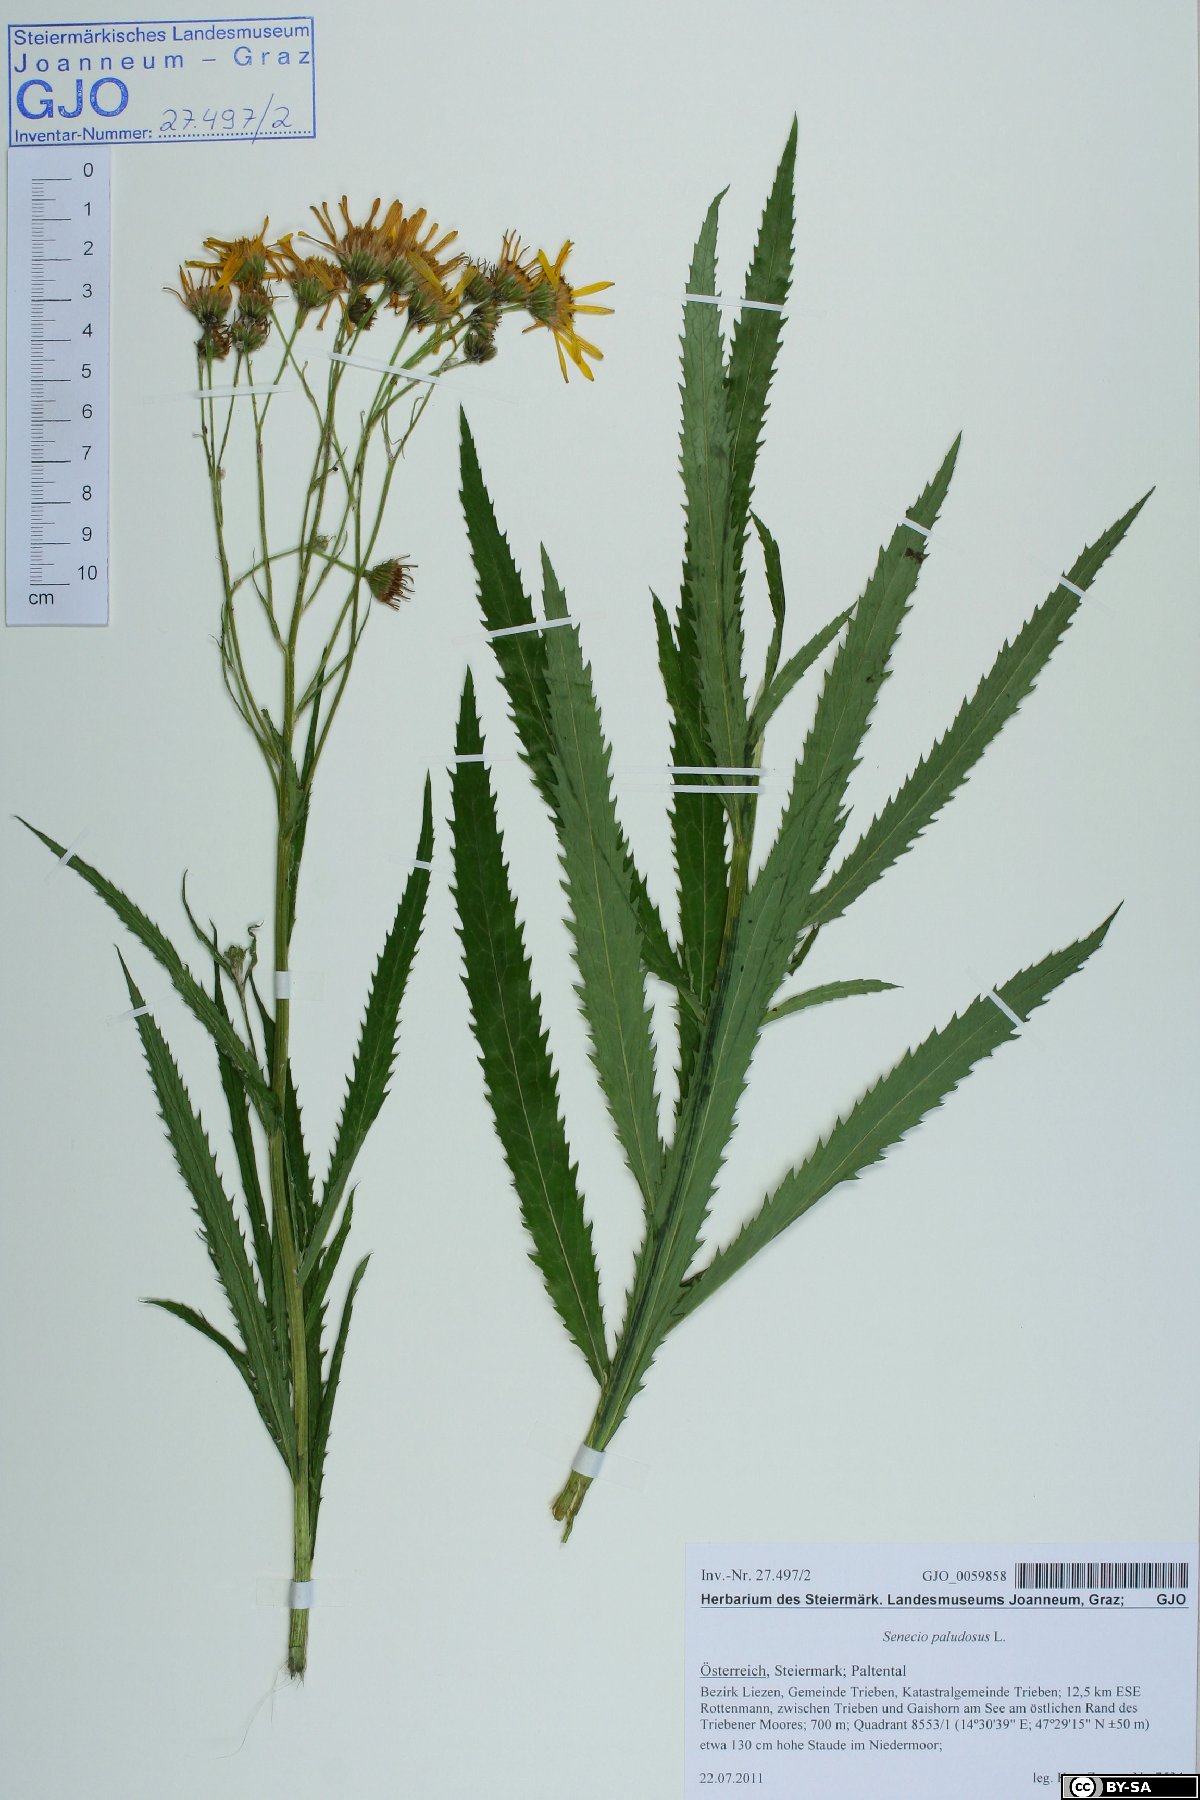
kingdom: Plantae
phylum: Tracheophyta
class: Magnoliopsida
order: Asterales
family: Asteraceae
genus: Jacobaea
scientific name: Jacobaea paludosa
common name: Fen ragwort
